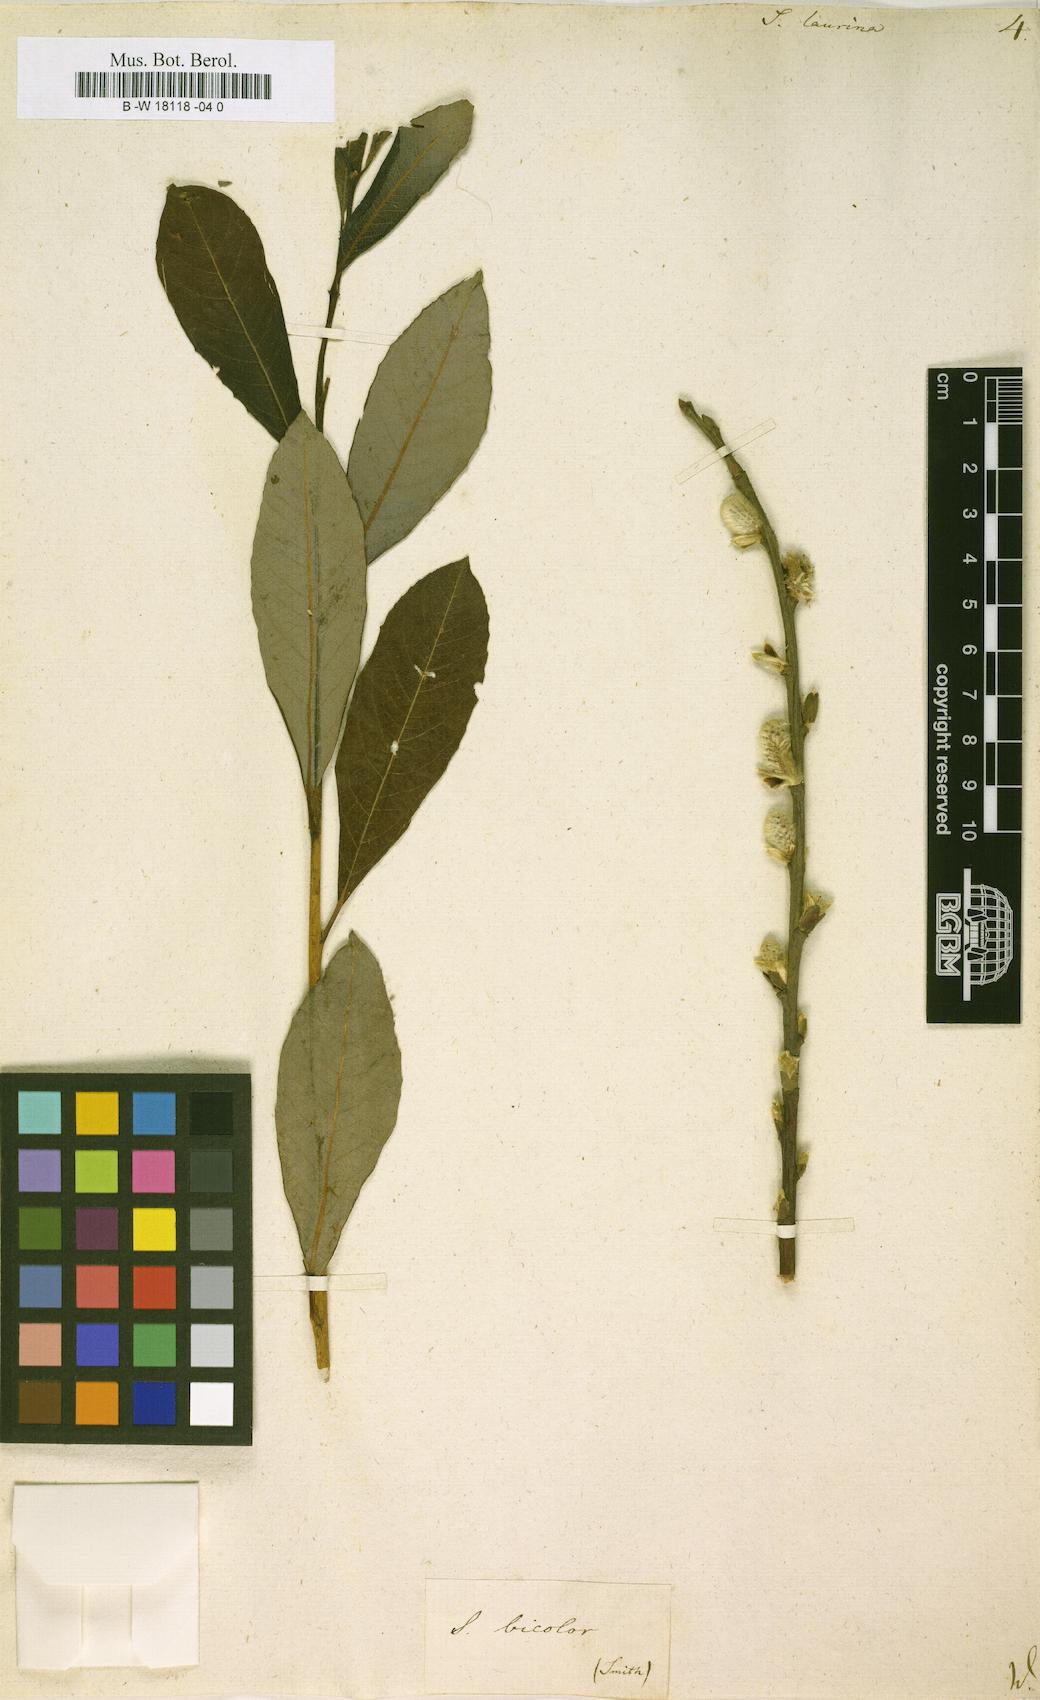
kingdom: Plantae
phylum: Tracheophyta
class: Magnoliopsida
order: Malpighiales
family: Salicaceae
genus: Salix
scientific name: Salix laurina
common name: Laurel-leaf willow
